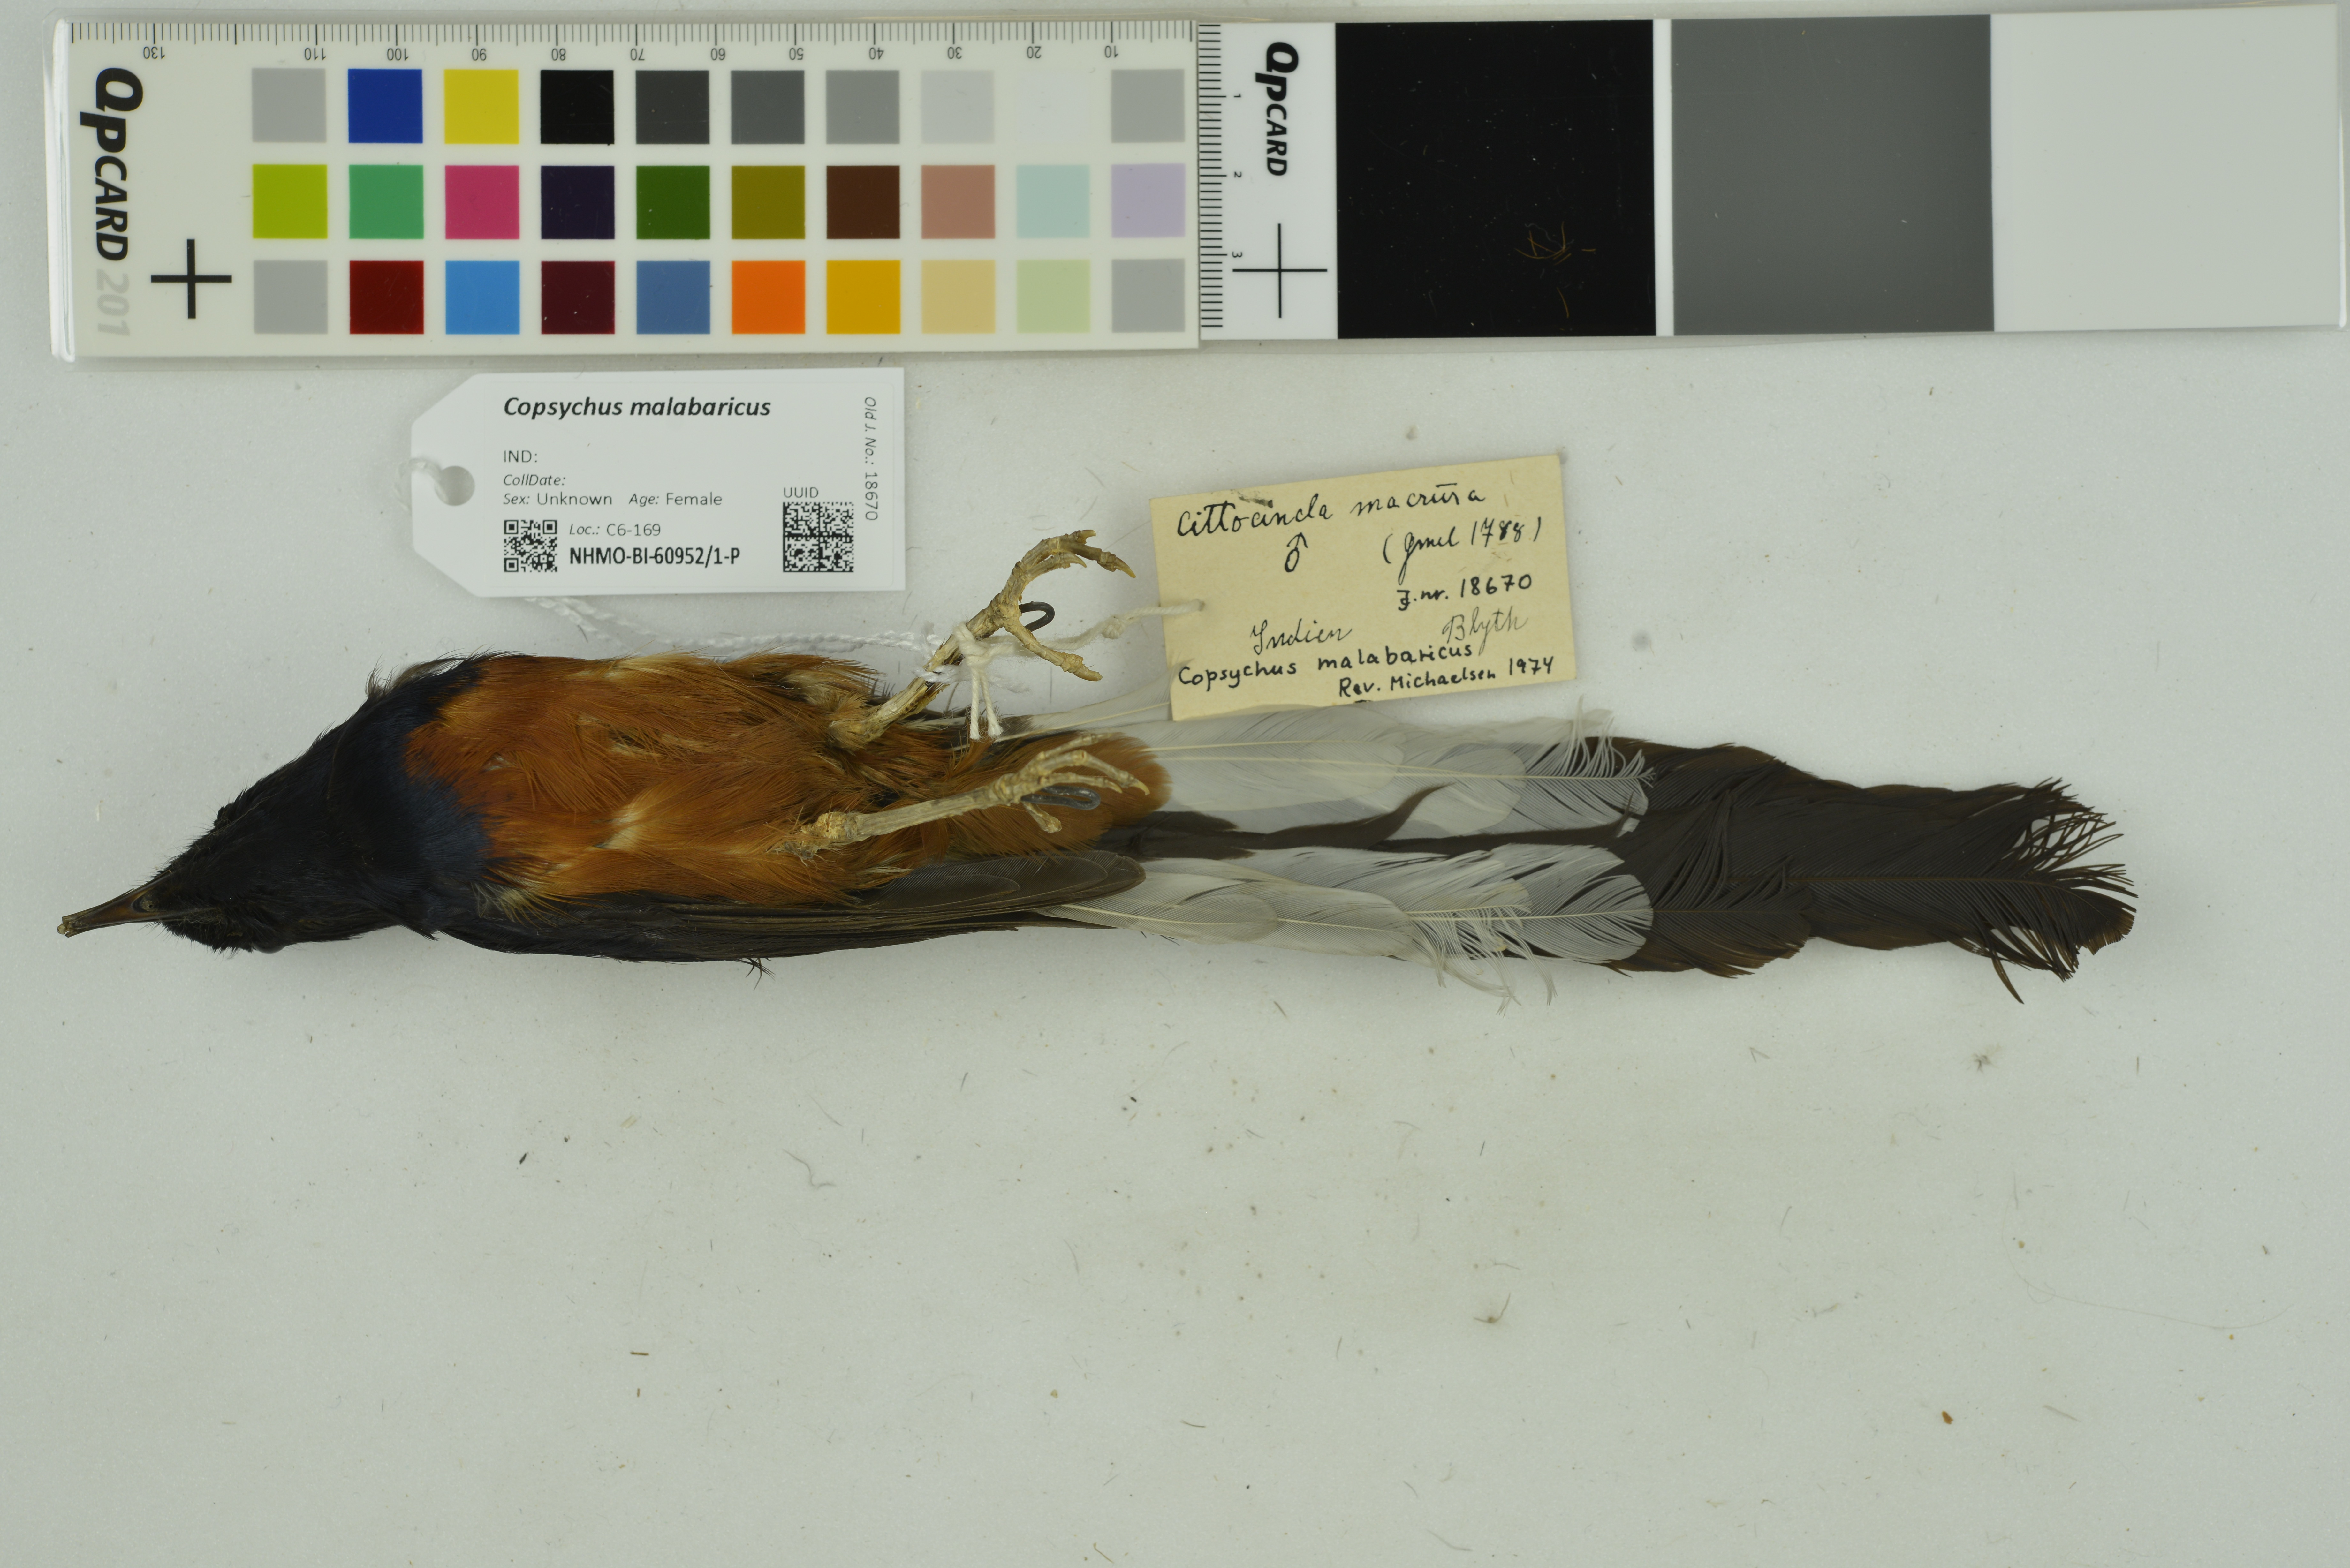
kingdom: Animalia
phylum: Chordata
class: Aves
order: Passeriformes
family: Muscicapidae
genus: Copsychus
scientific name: Copsychus malabaricus
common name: White-rumped shama
